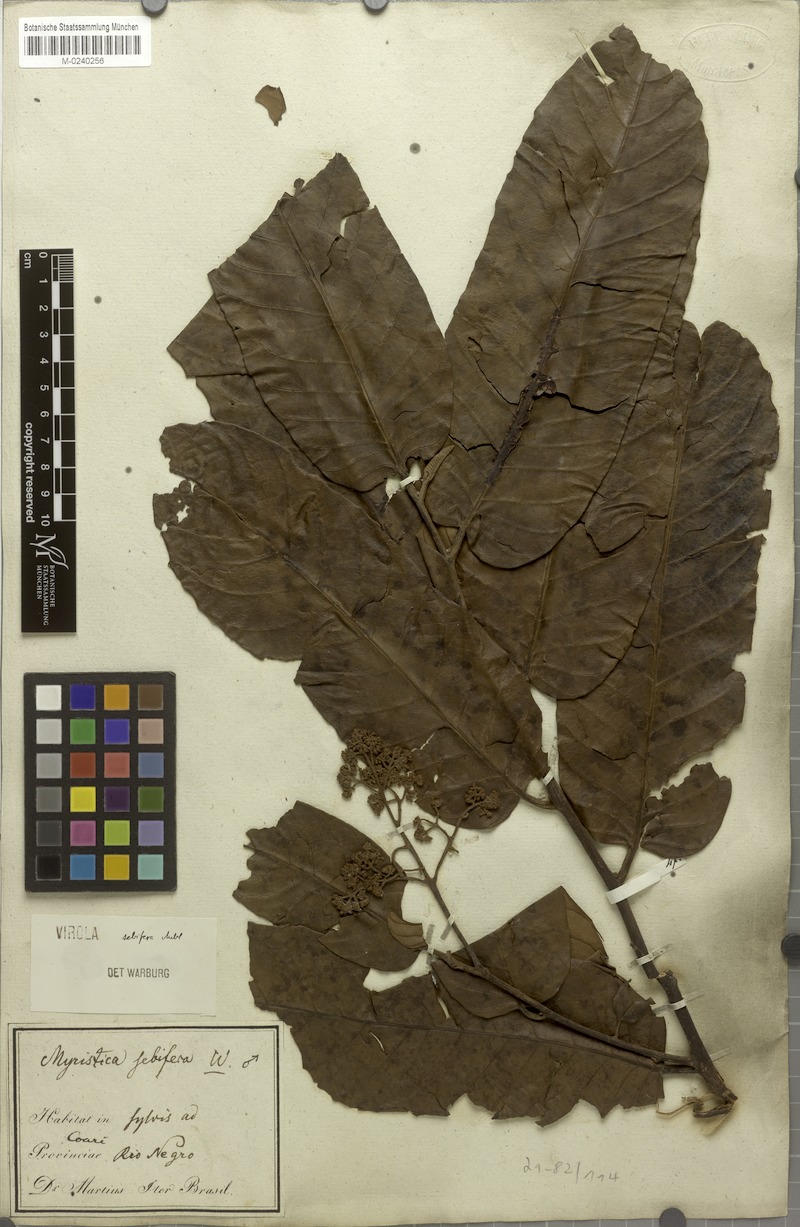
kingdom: Plantae
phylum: Tracheophyta
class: Magnoliopsida
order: Magnoliales
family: Myristicaceae
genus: Virola
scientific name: Virola sebifera
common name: Red ucuuba
